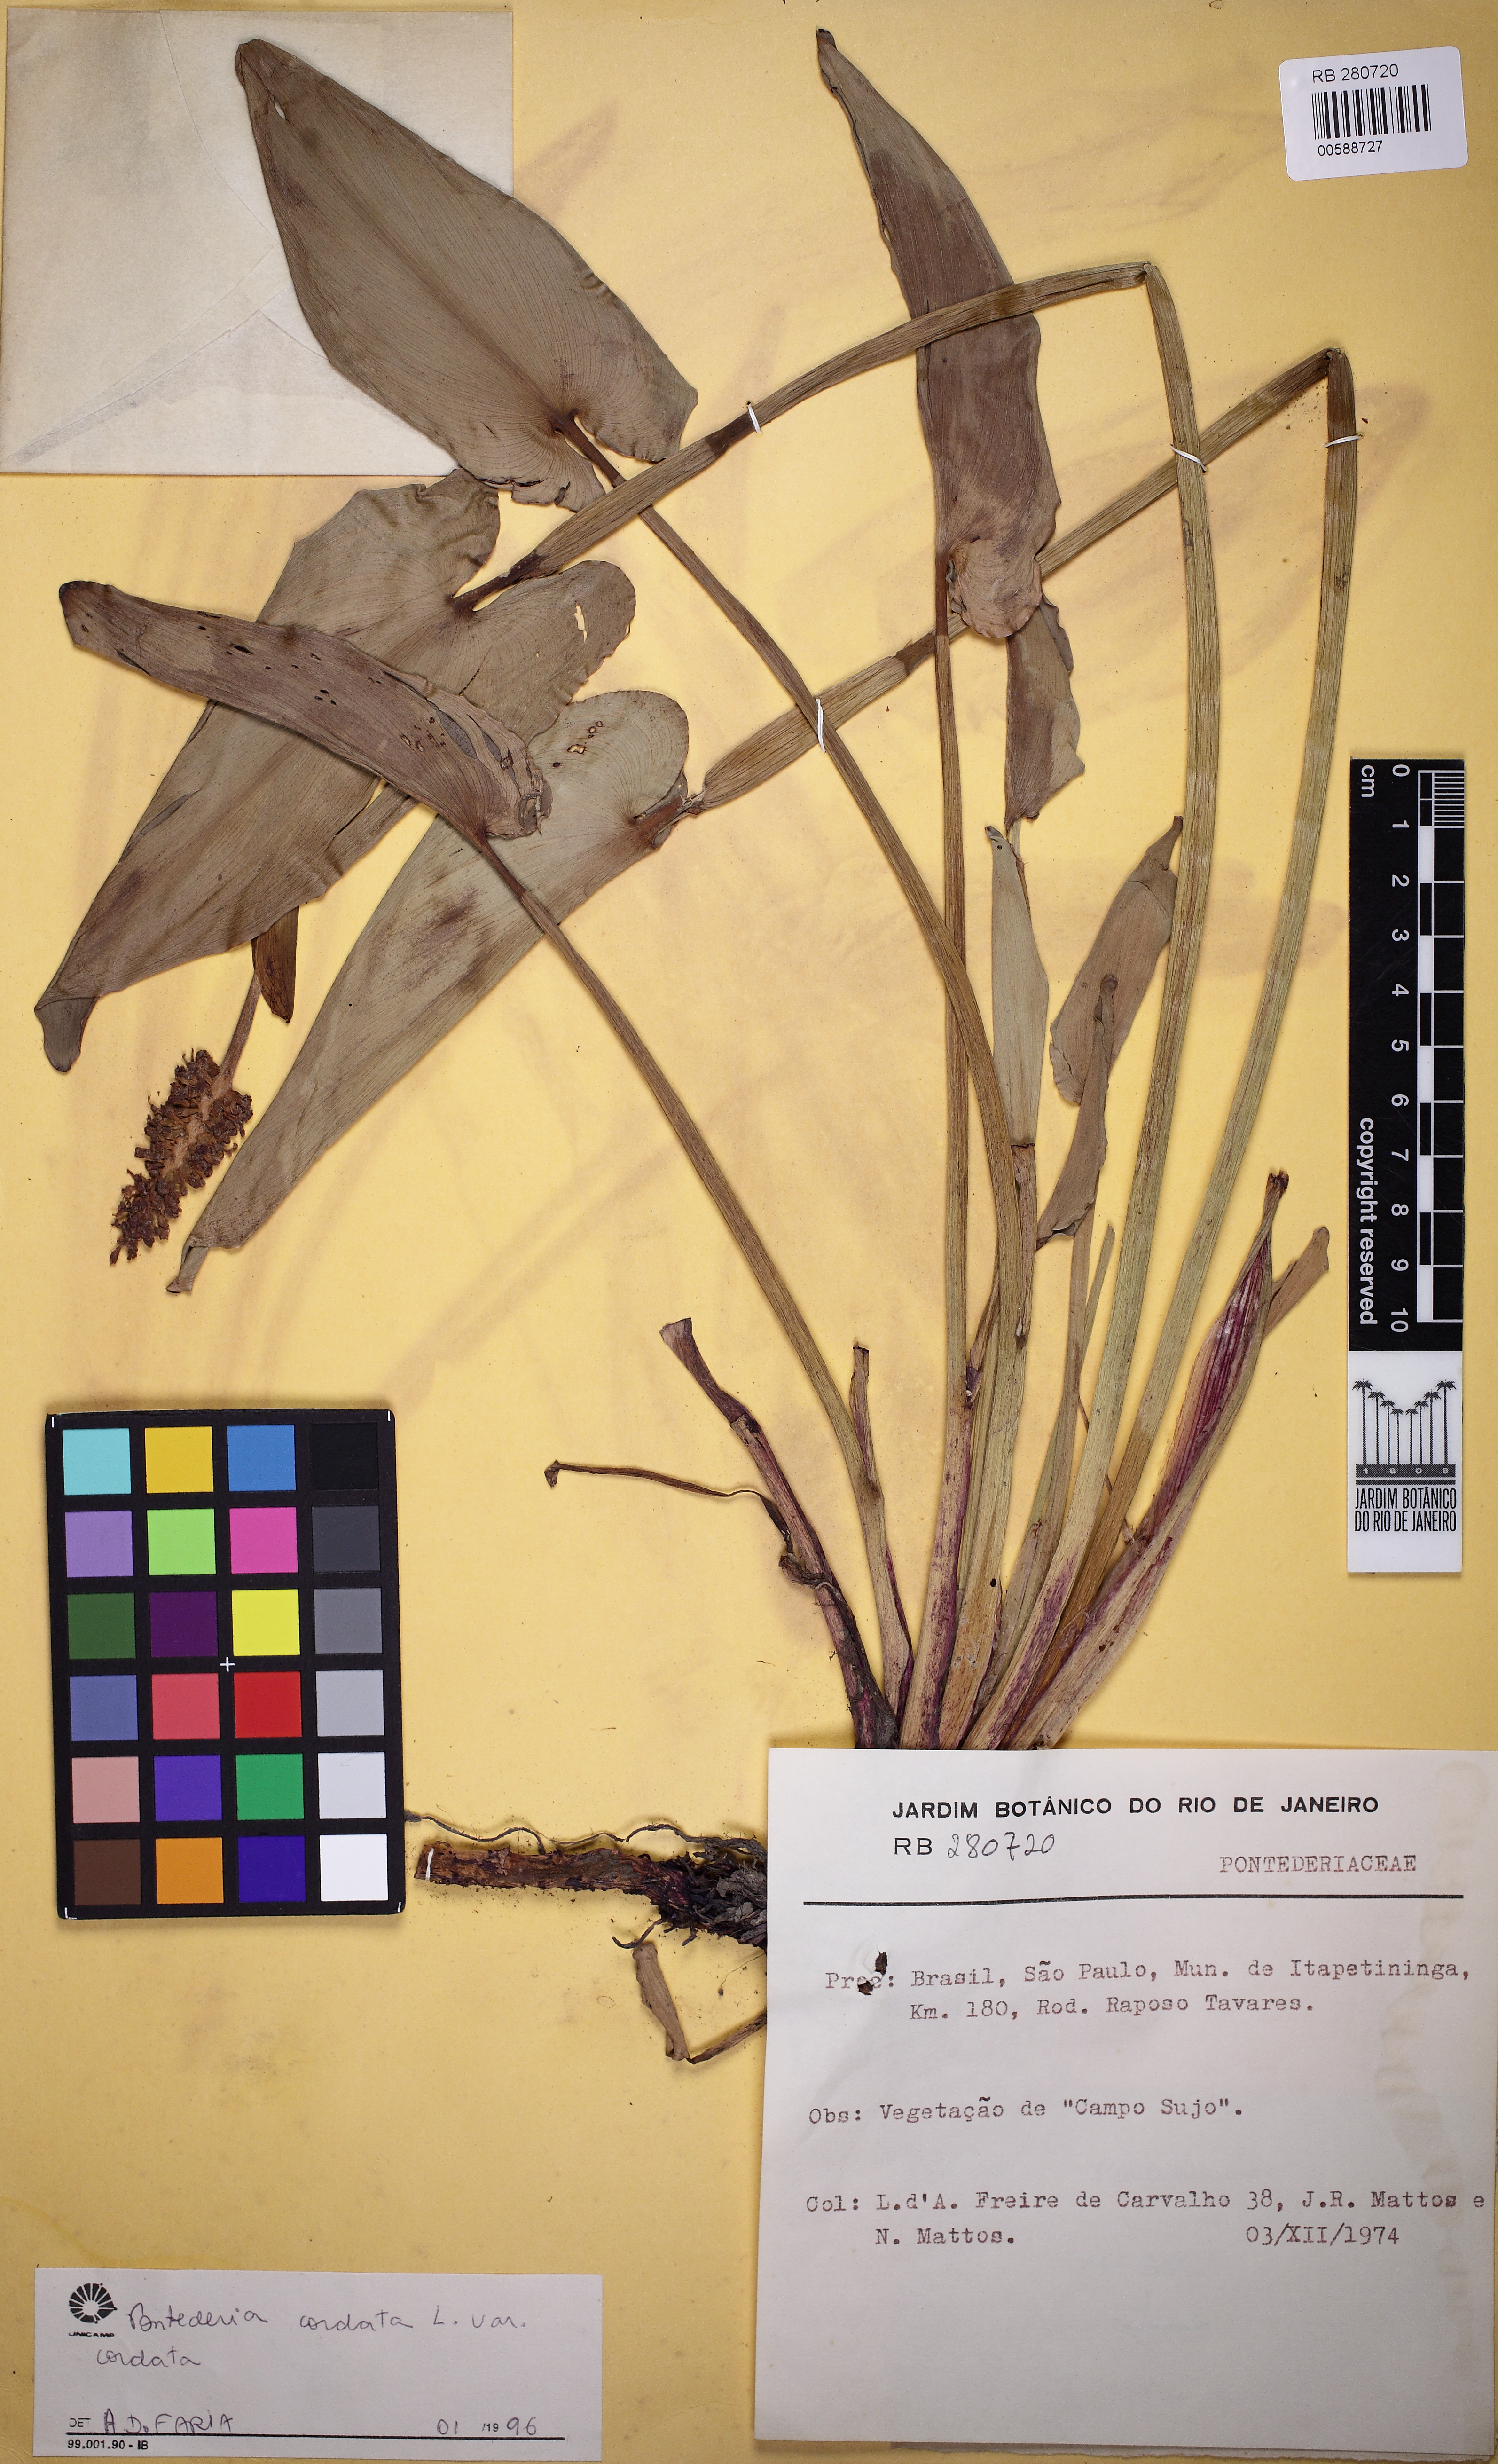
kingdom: Plantae
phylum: Tracheophyta
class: Liliopsida
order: Commelinales
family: Pontederiaceae
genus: Pontederia
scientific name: Pontederia cordata
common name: Pickerelweed
